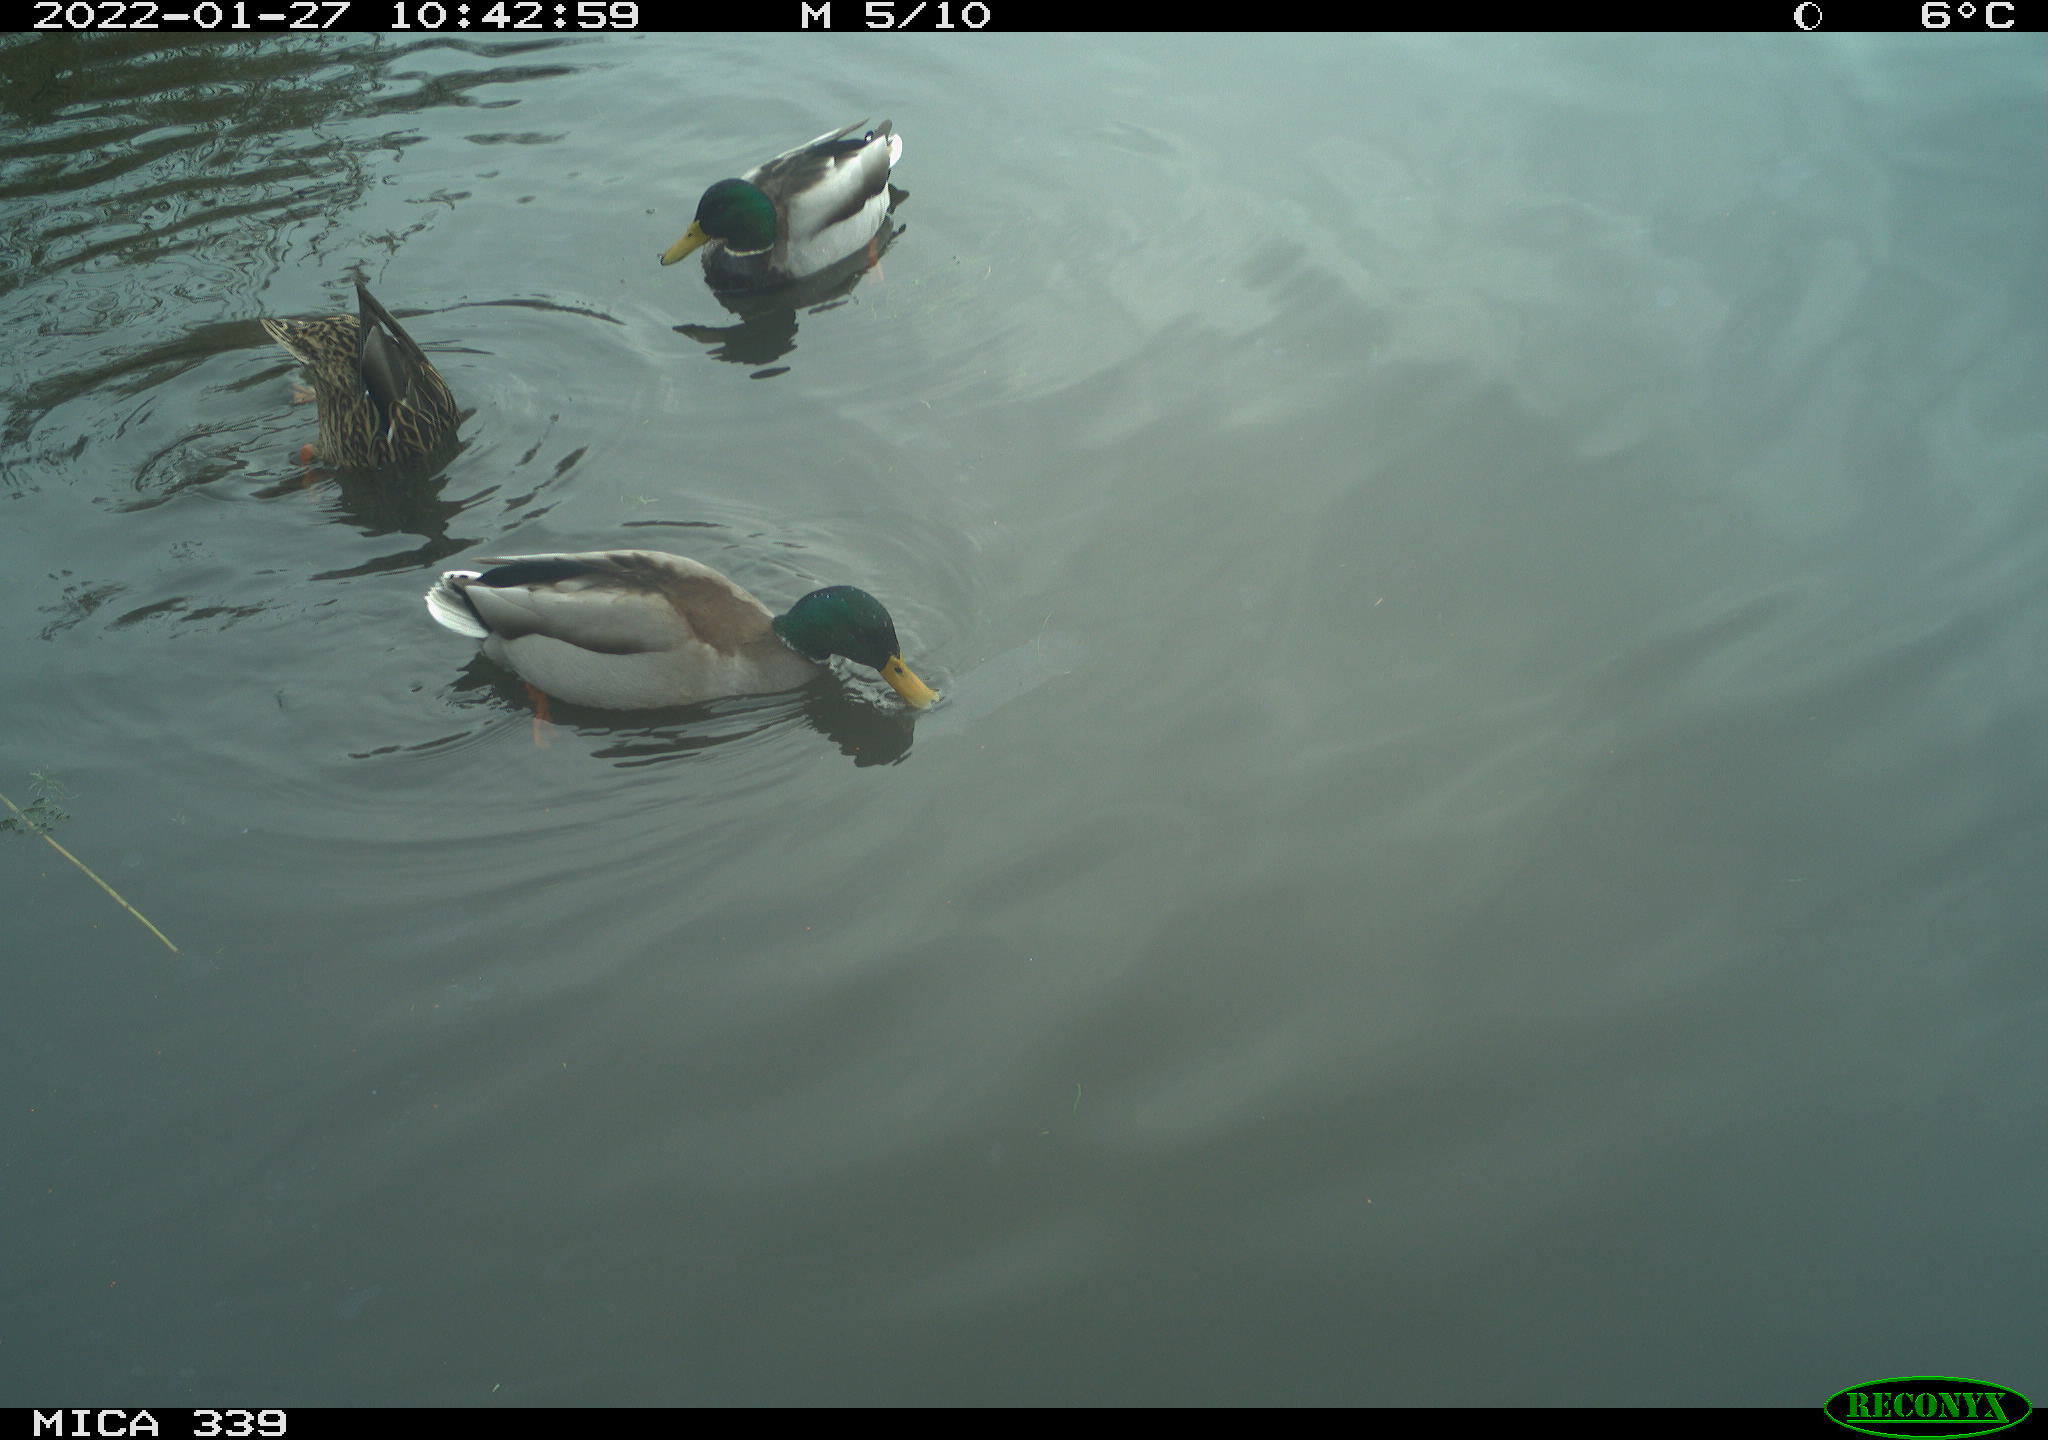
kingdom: Animalia
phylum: Chordata
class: Aves
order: Anseriformes
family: Anatidae
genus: Anas
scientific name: Anas platyrhynchos
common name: Mallard
